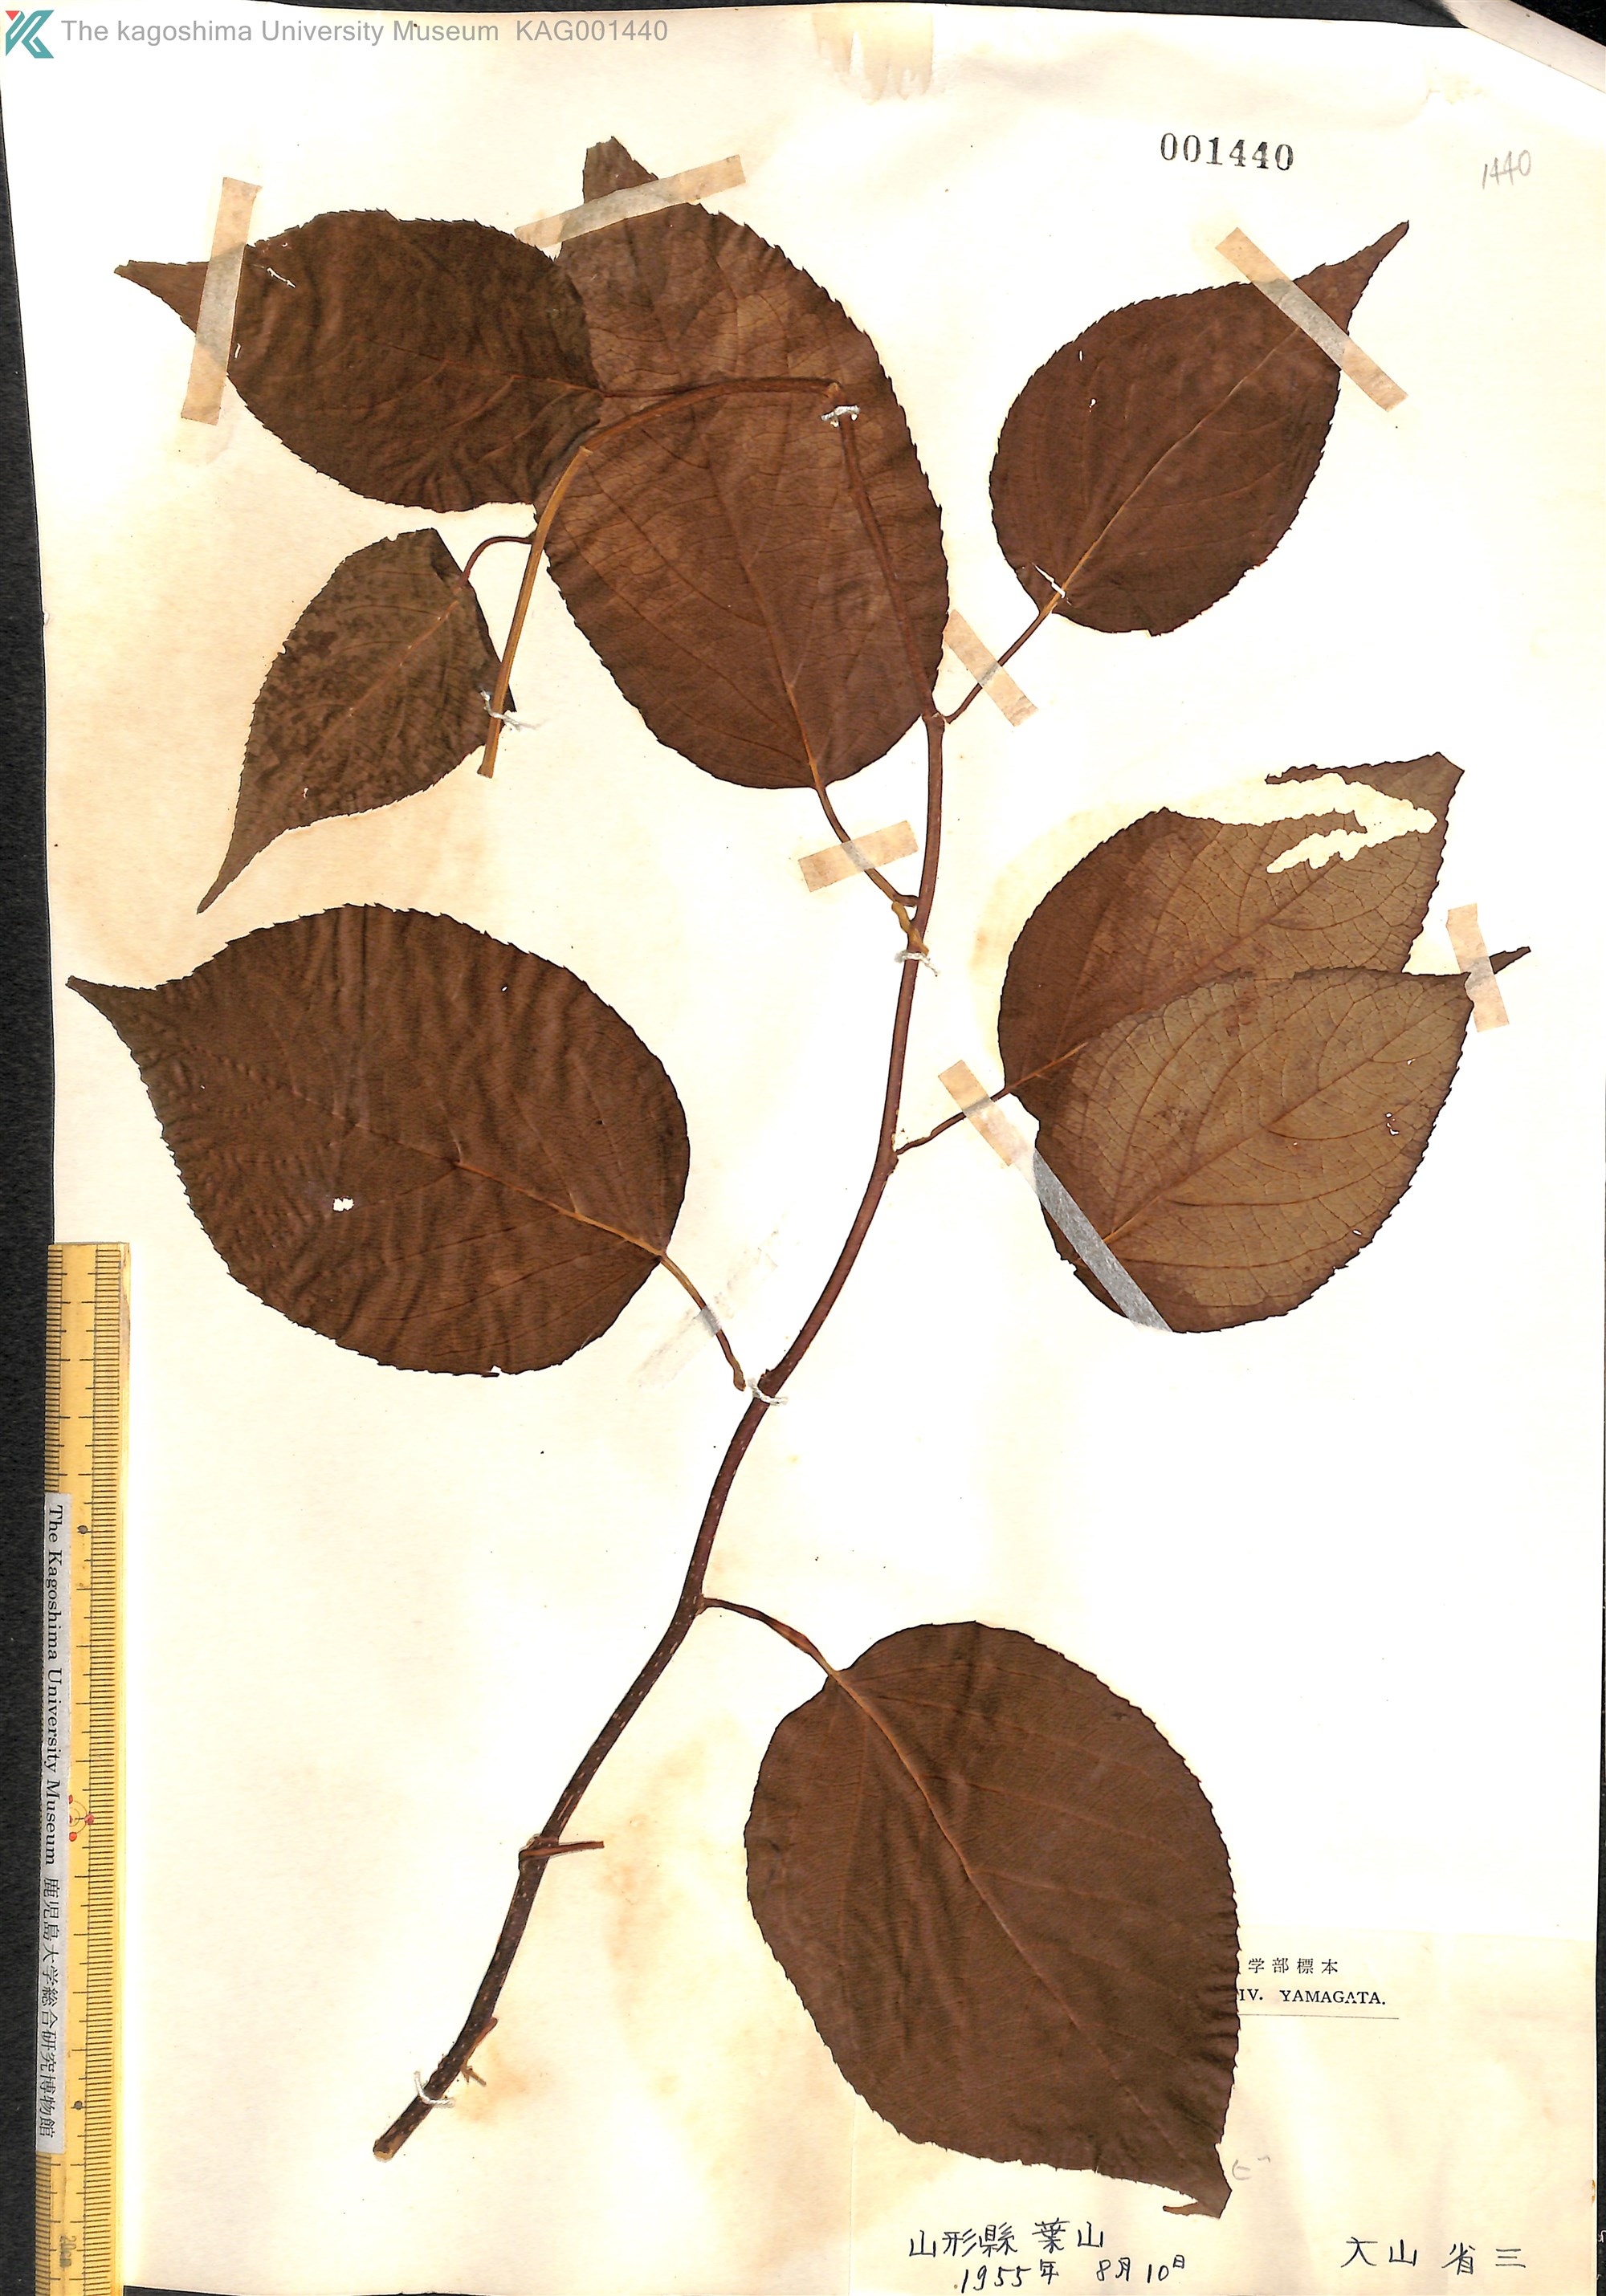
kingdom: Plantae
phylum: Tracheophyta
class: Magnoliopsida
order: Ericales
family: Actinidiaceae
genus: Actinidia
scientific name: Actinidia polygama
